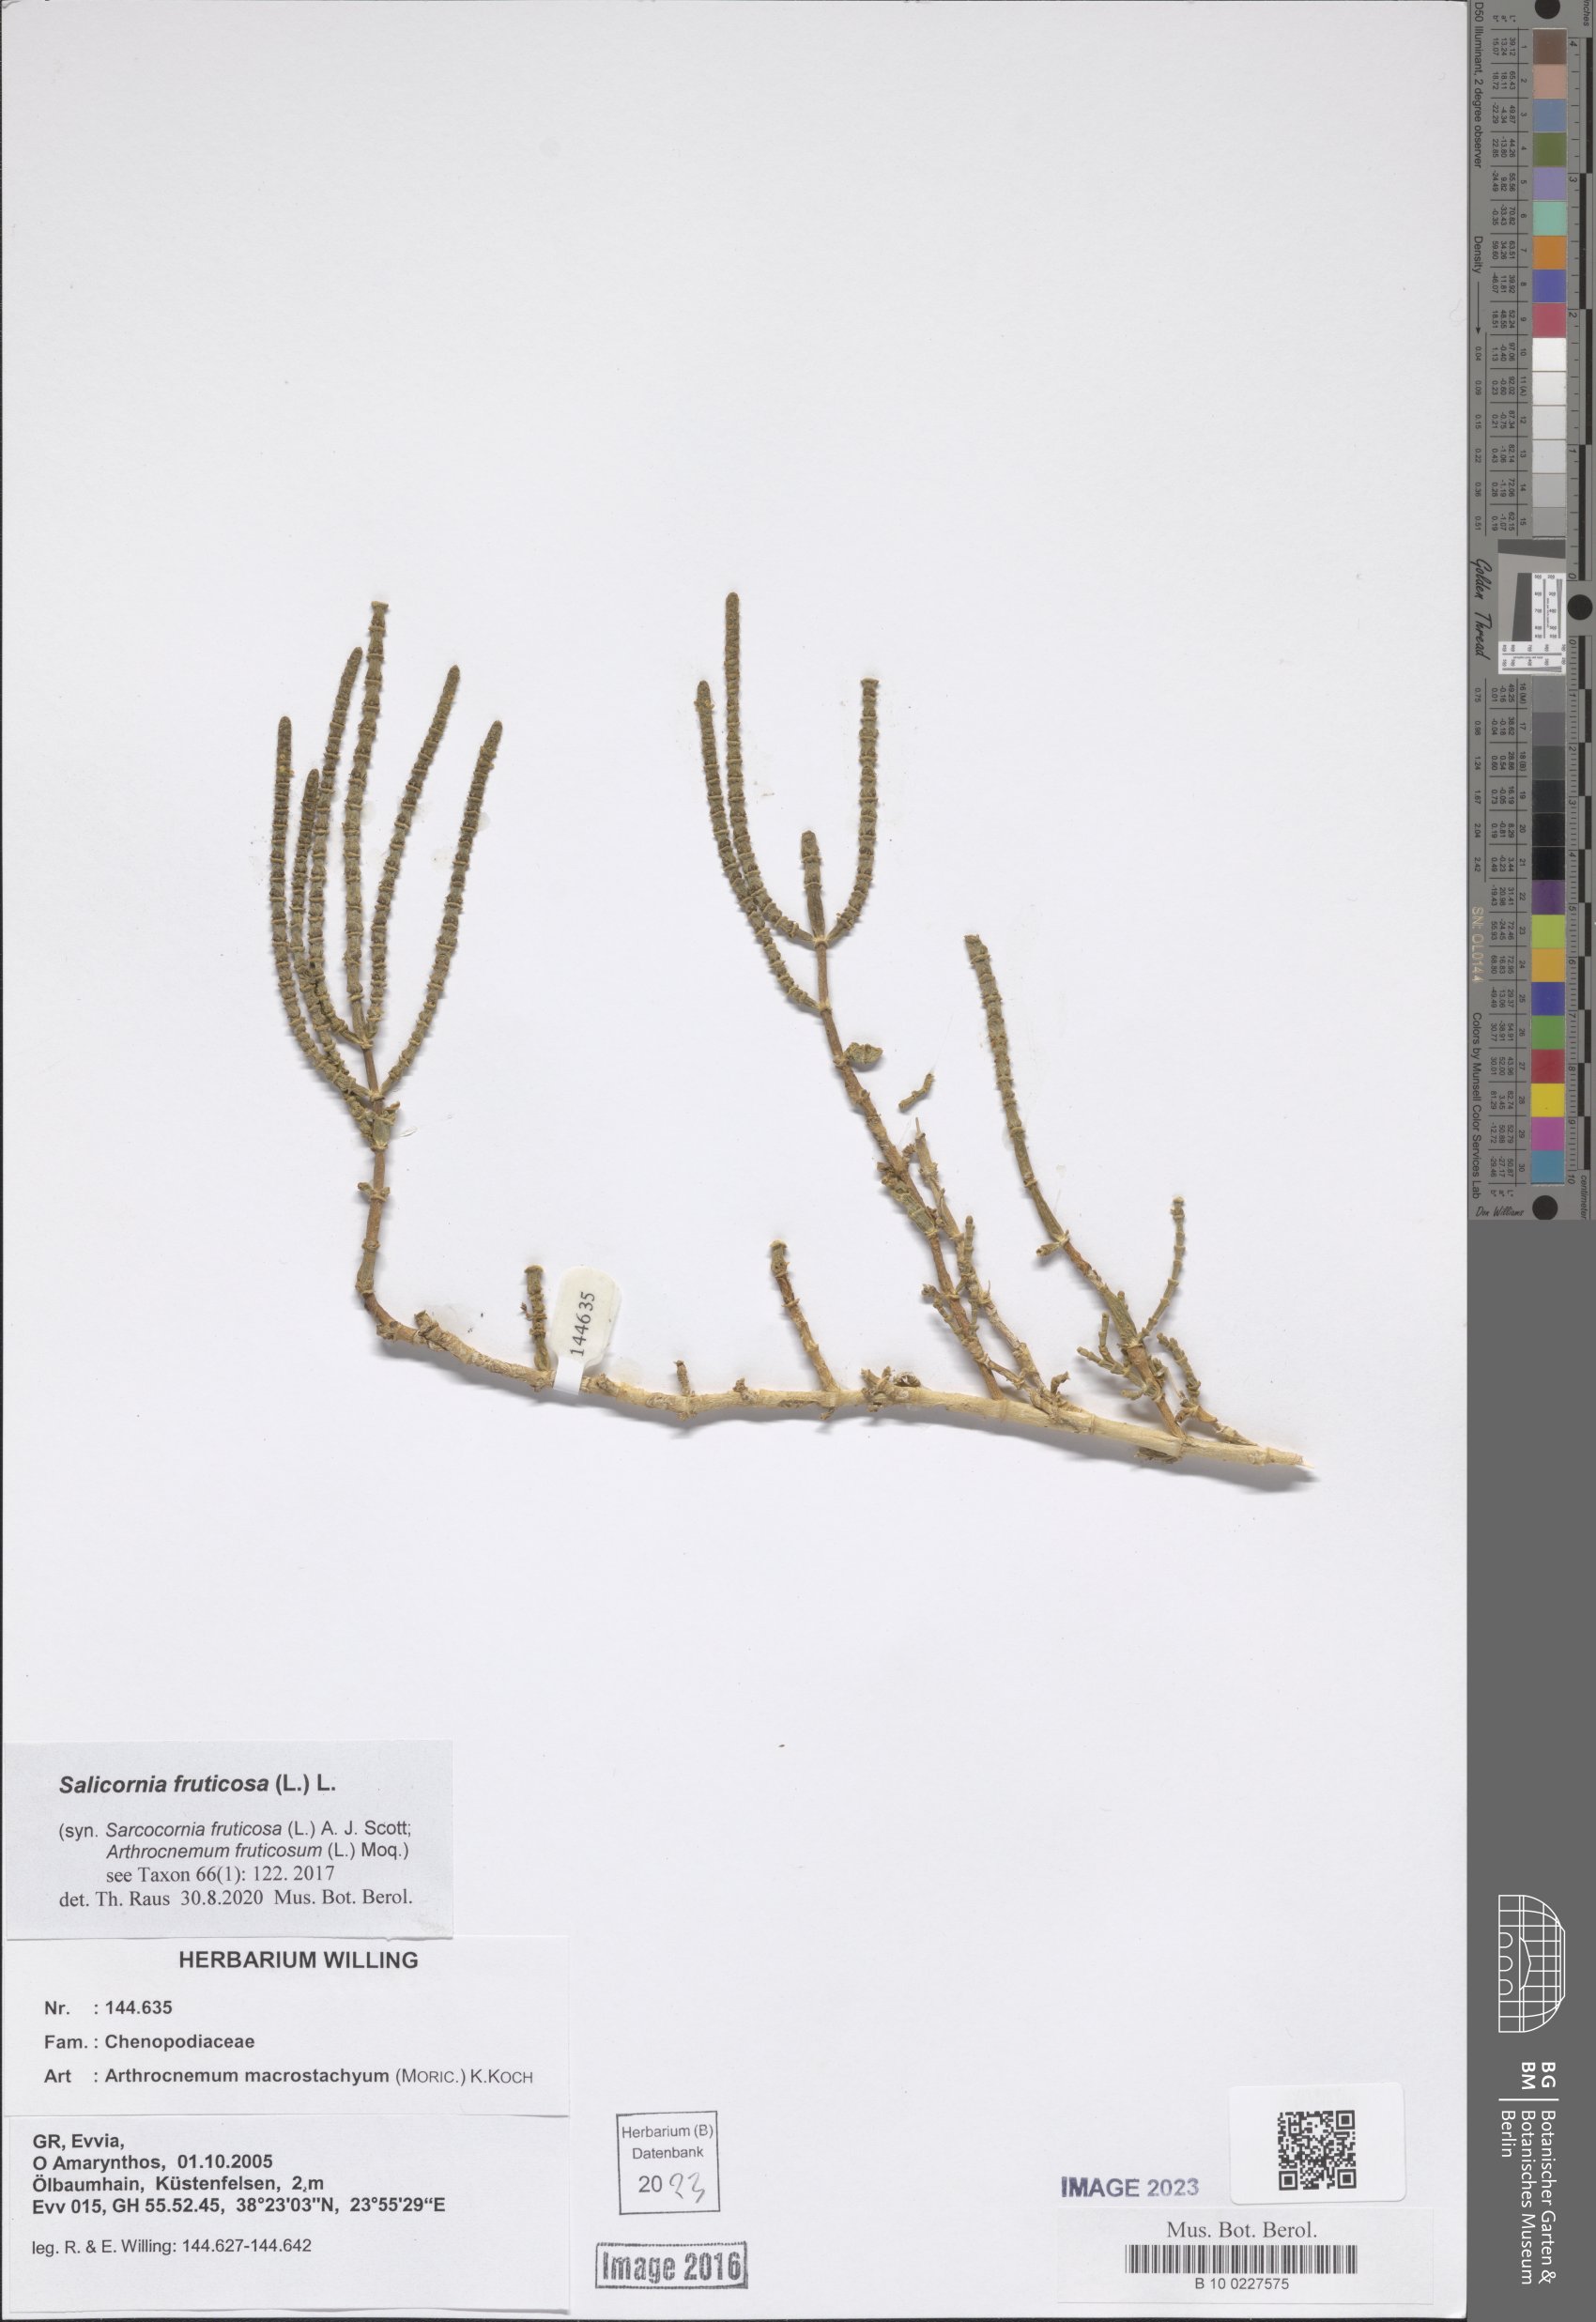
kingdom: Plantae
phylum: Tracheophyta
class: Magnoliopsida
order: Caryophyllales
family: Amaranthaceae
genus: Salicornia
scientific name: Salicornia fruticosa
